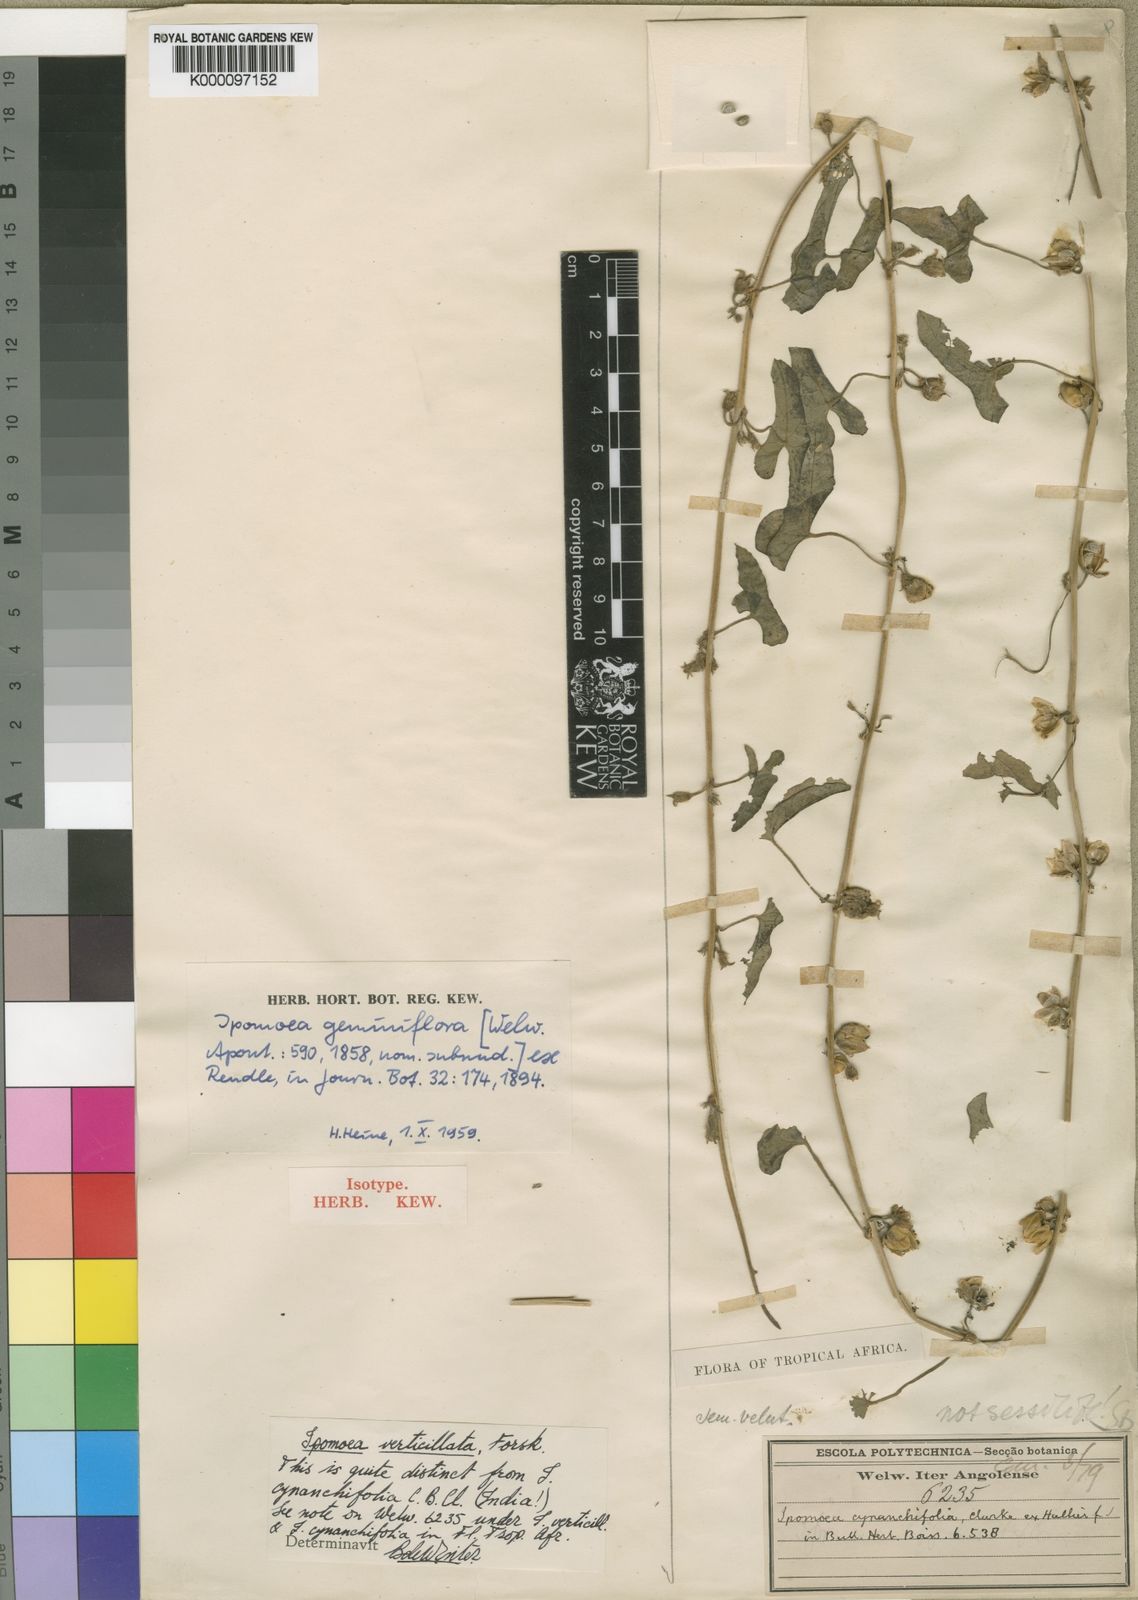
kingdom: Plantae
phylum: Tracheophyta
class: Magnoliopsida
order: Solanales
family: Convolvulaceae
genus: Ipomoea
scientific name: Ipomoea verticillata
